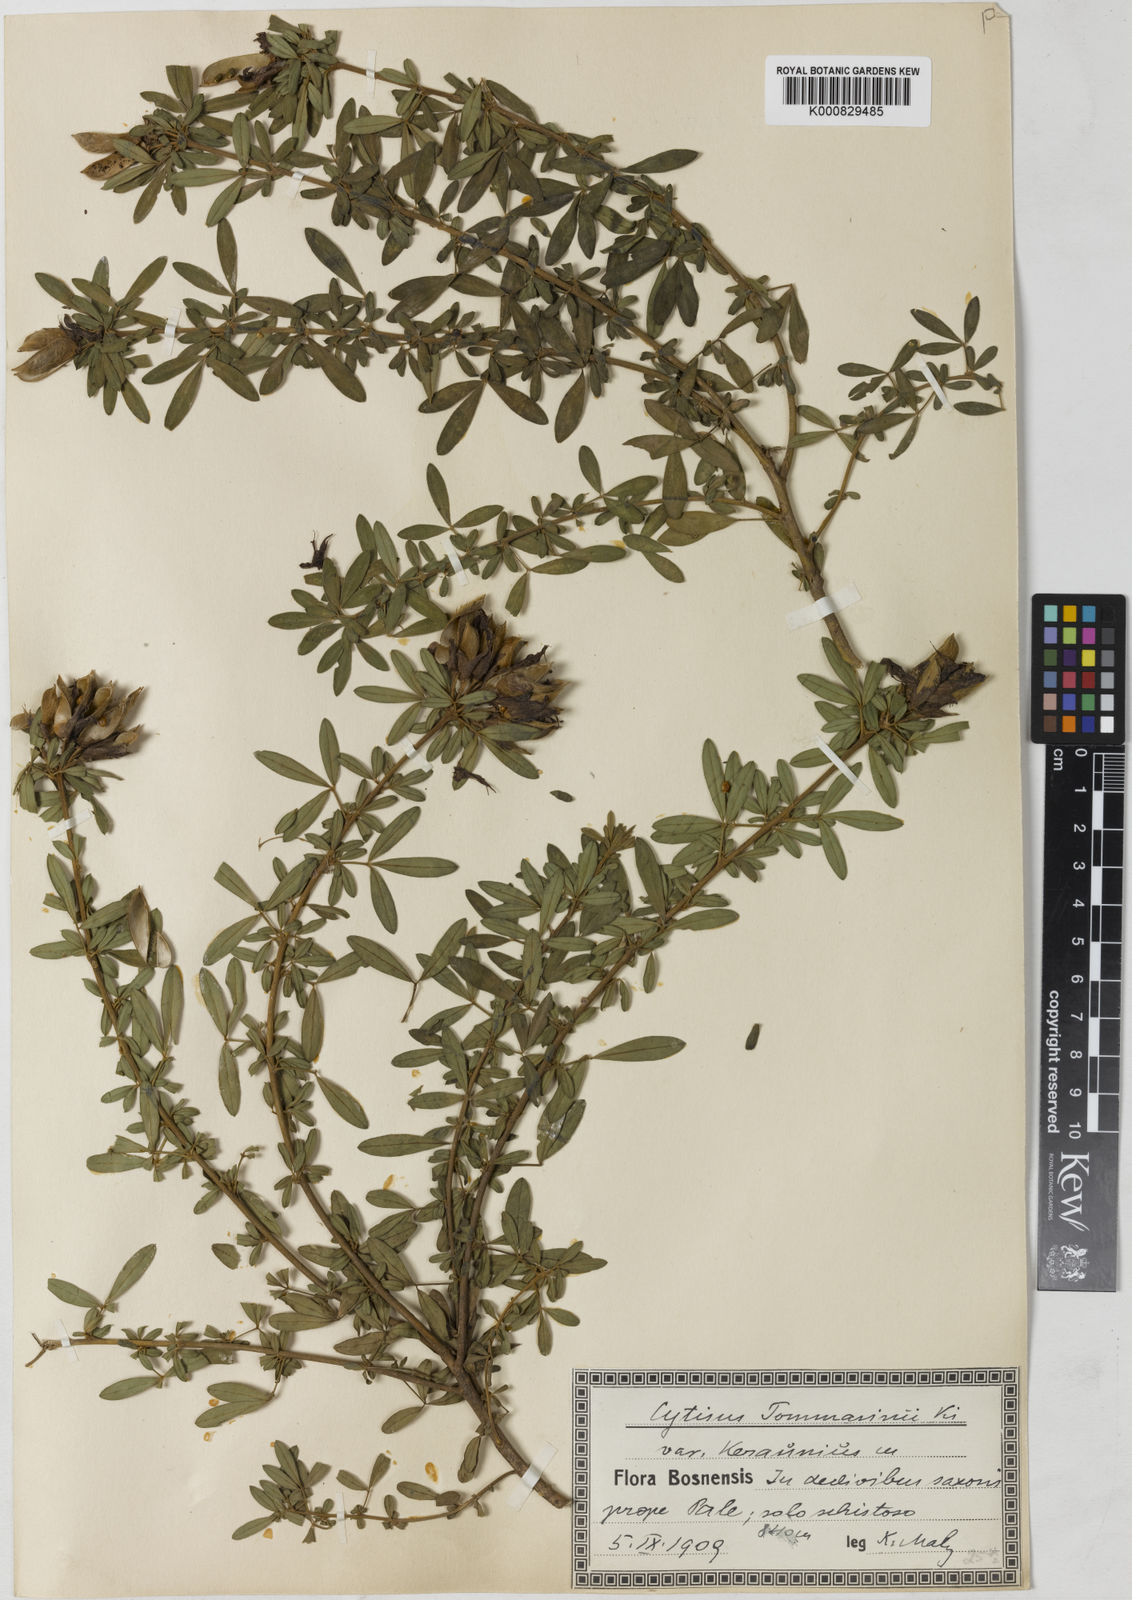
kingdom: Plantae
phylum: Tracheophyta
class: Magnoliopsida
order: Fabales
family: Fabaceae
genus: Chamaecytisus
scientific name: Chamaecytisus tommasinii
